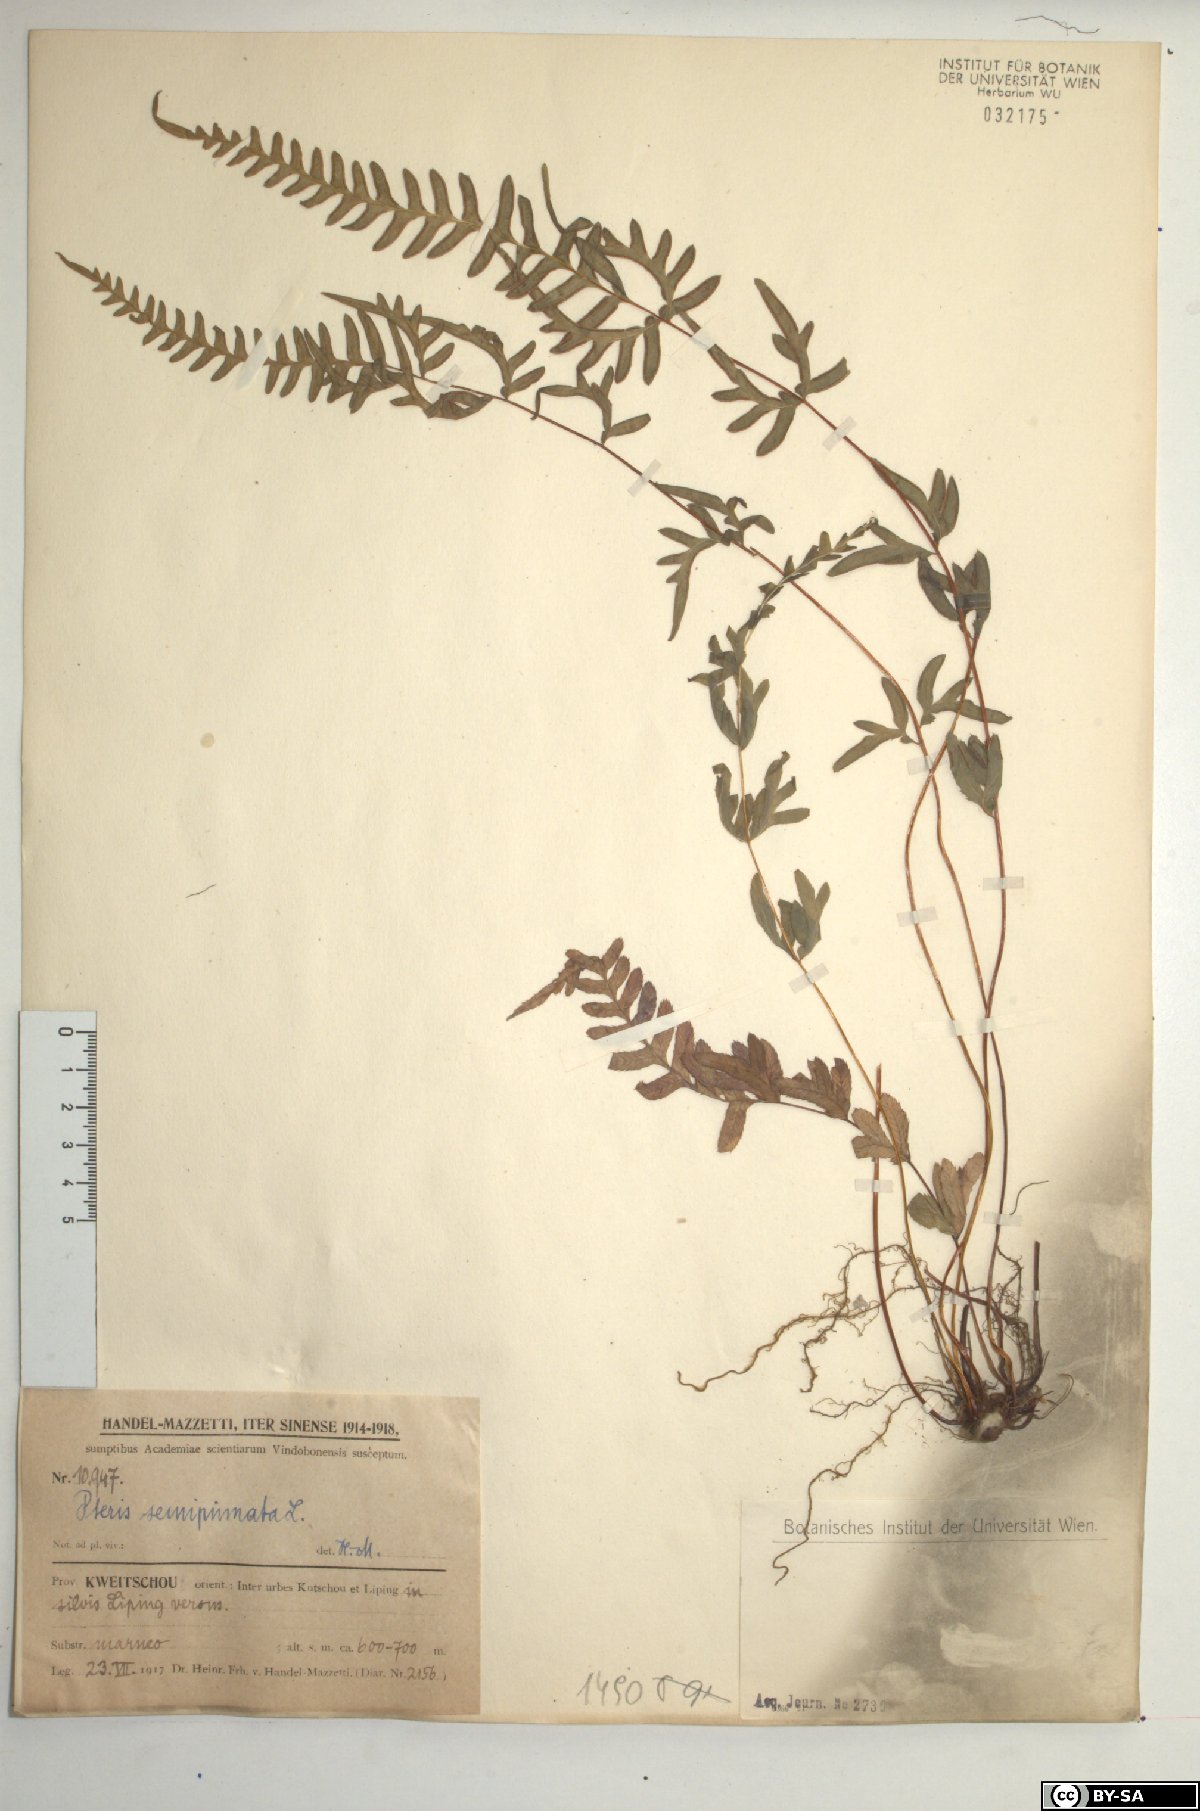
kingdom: Plantae
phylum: Tracheophyta
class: Polypodiopsida
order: Polypodiales
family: Pteridaceae
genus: Pteris
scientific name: Pteris semipinnata
